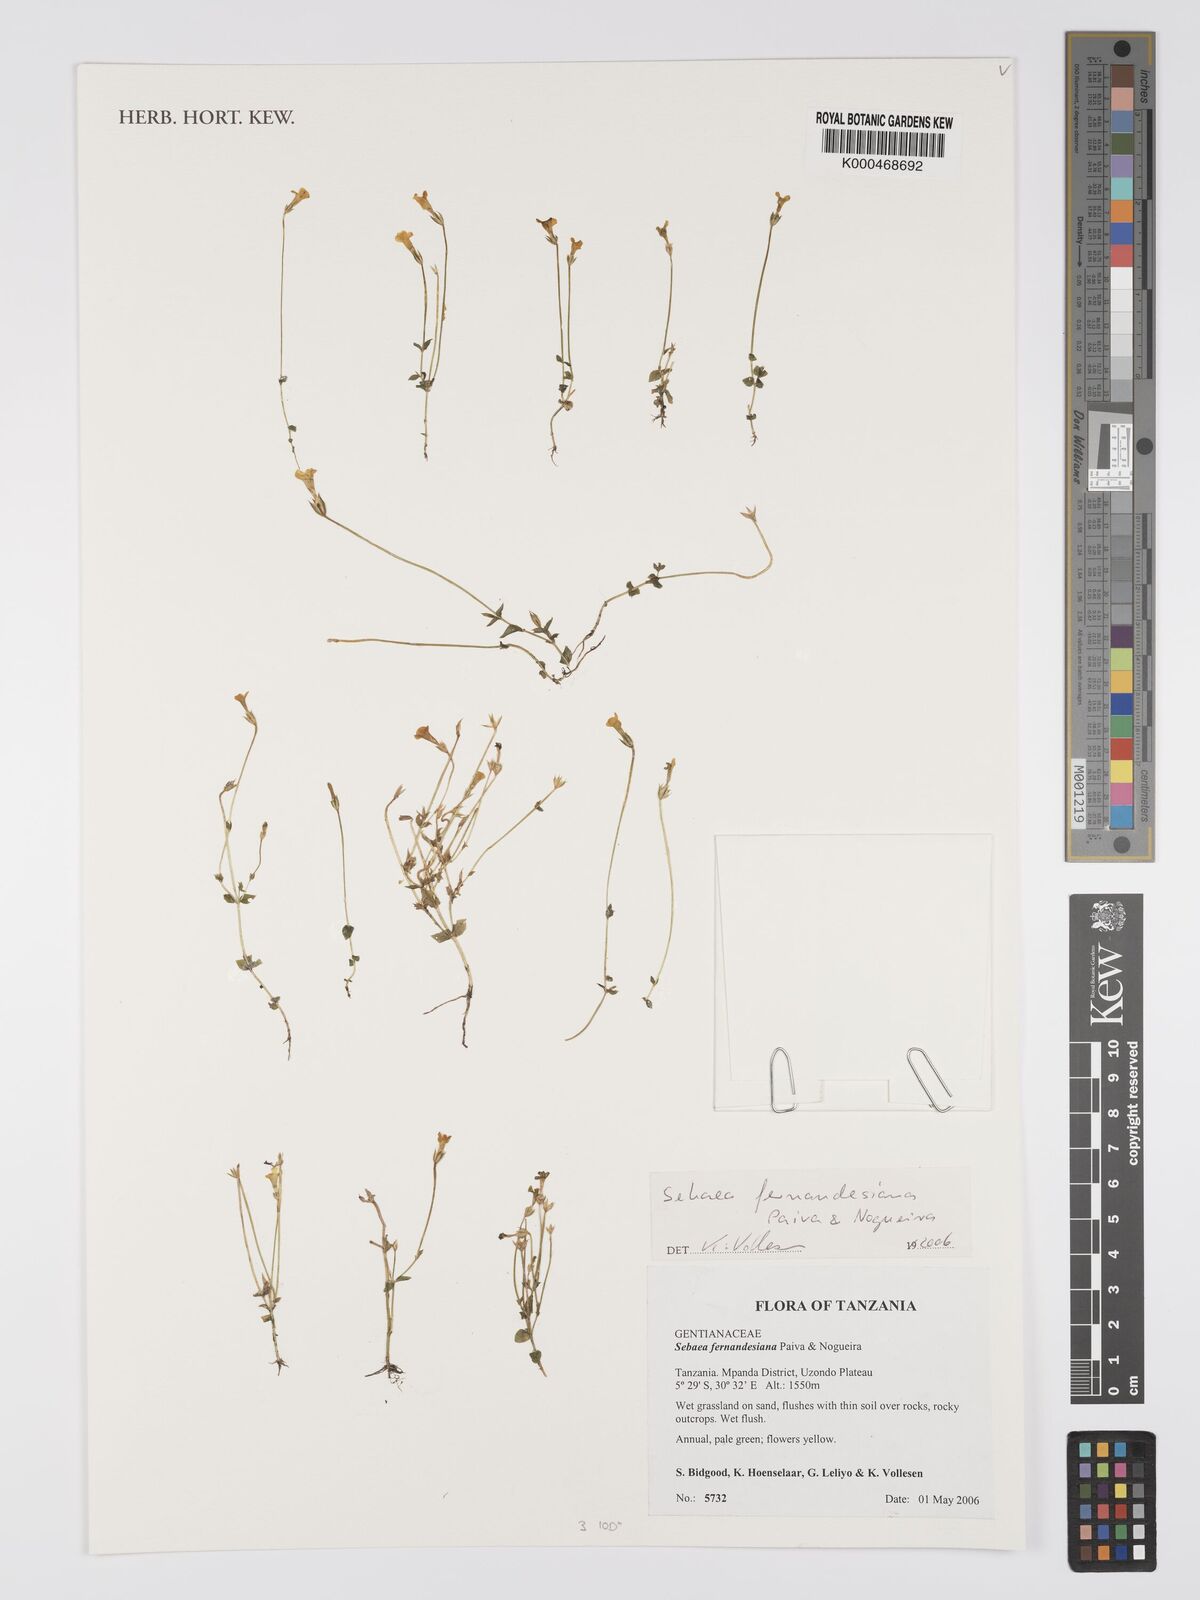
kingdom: Plantae
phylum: Tracheophyta
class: Magnoliopsida
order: Gentianales
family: Gentianaceae
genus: Exochaenium
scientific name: Exochaenium fernandesianum
